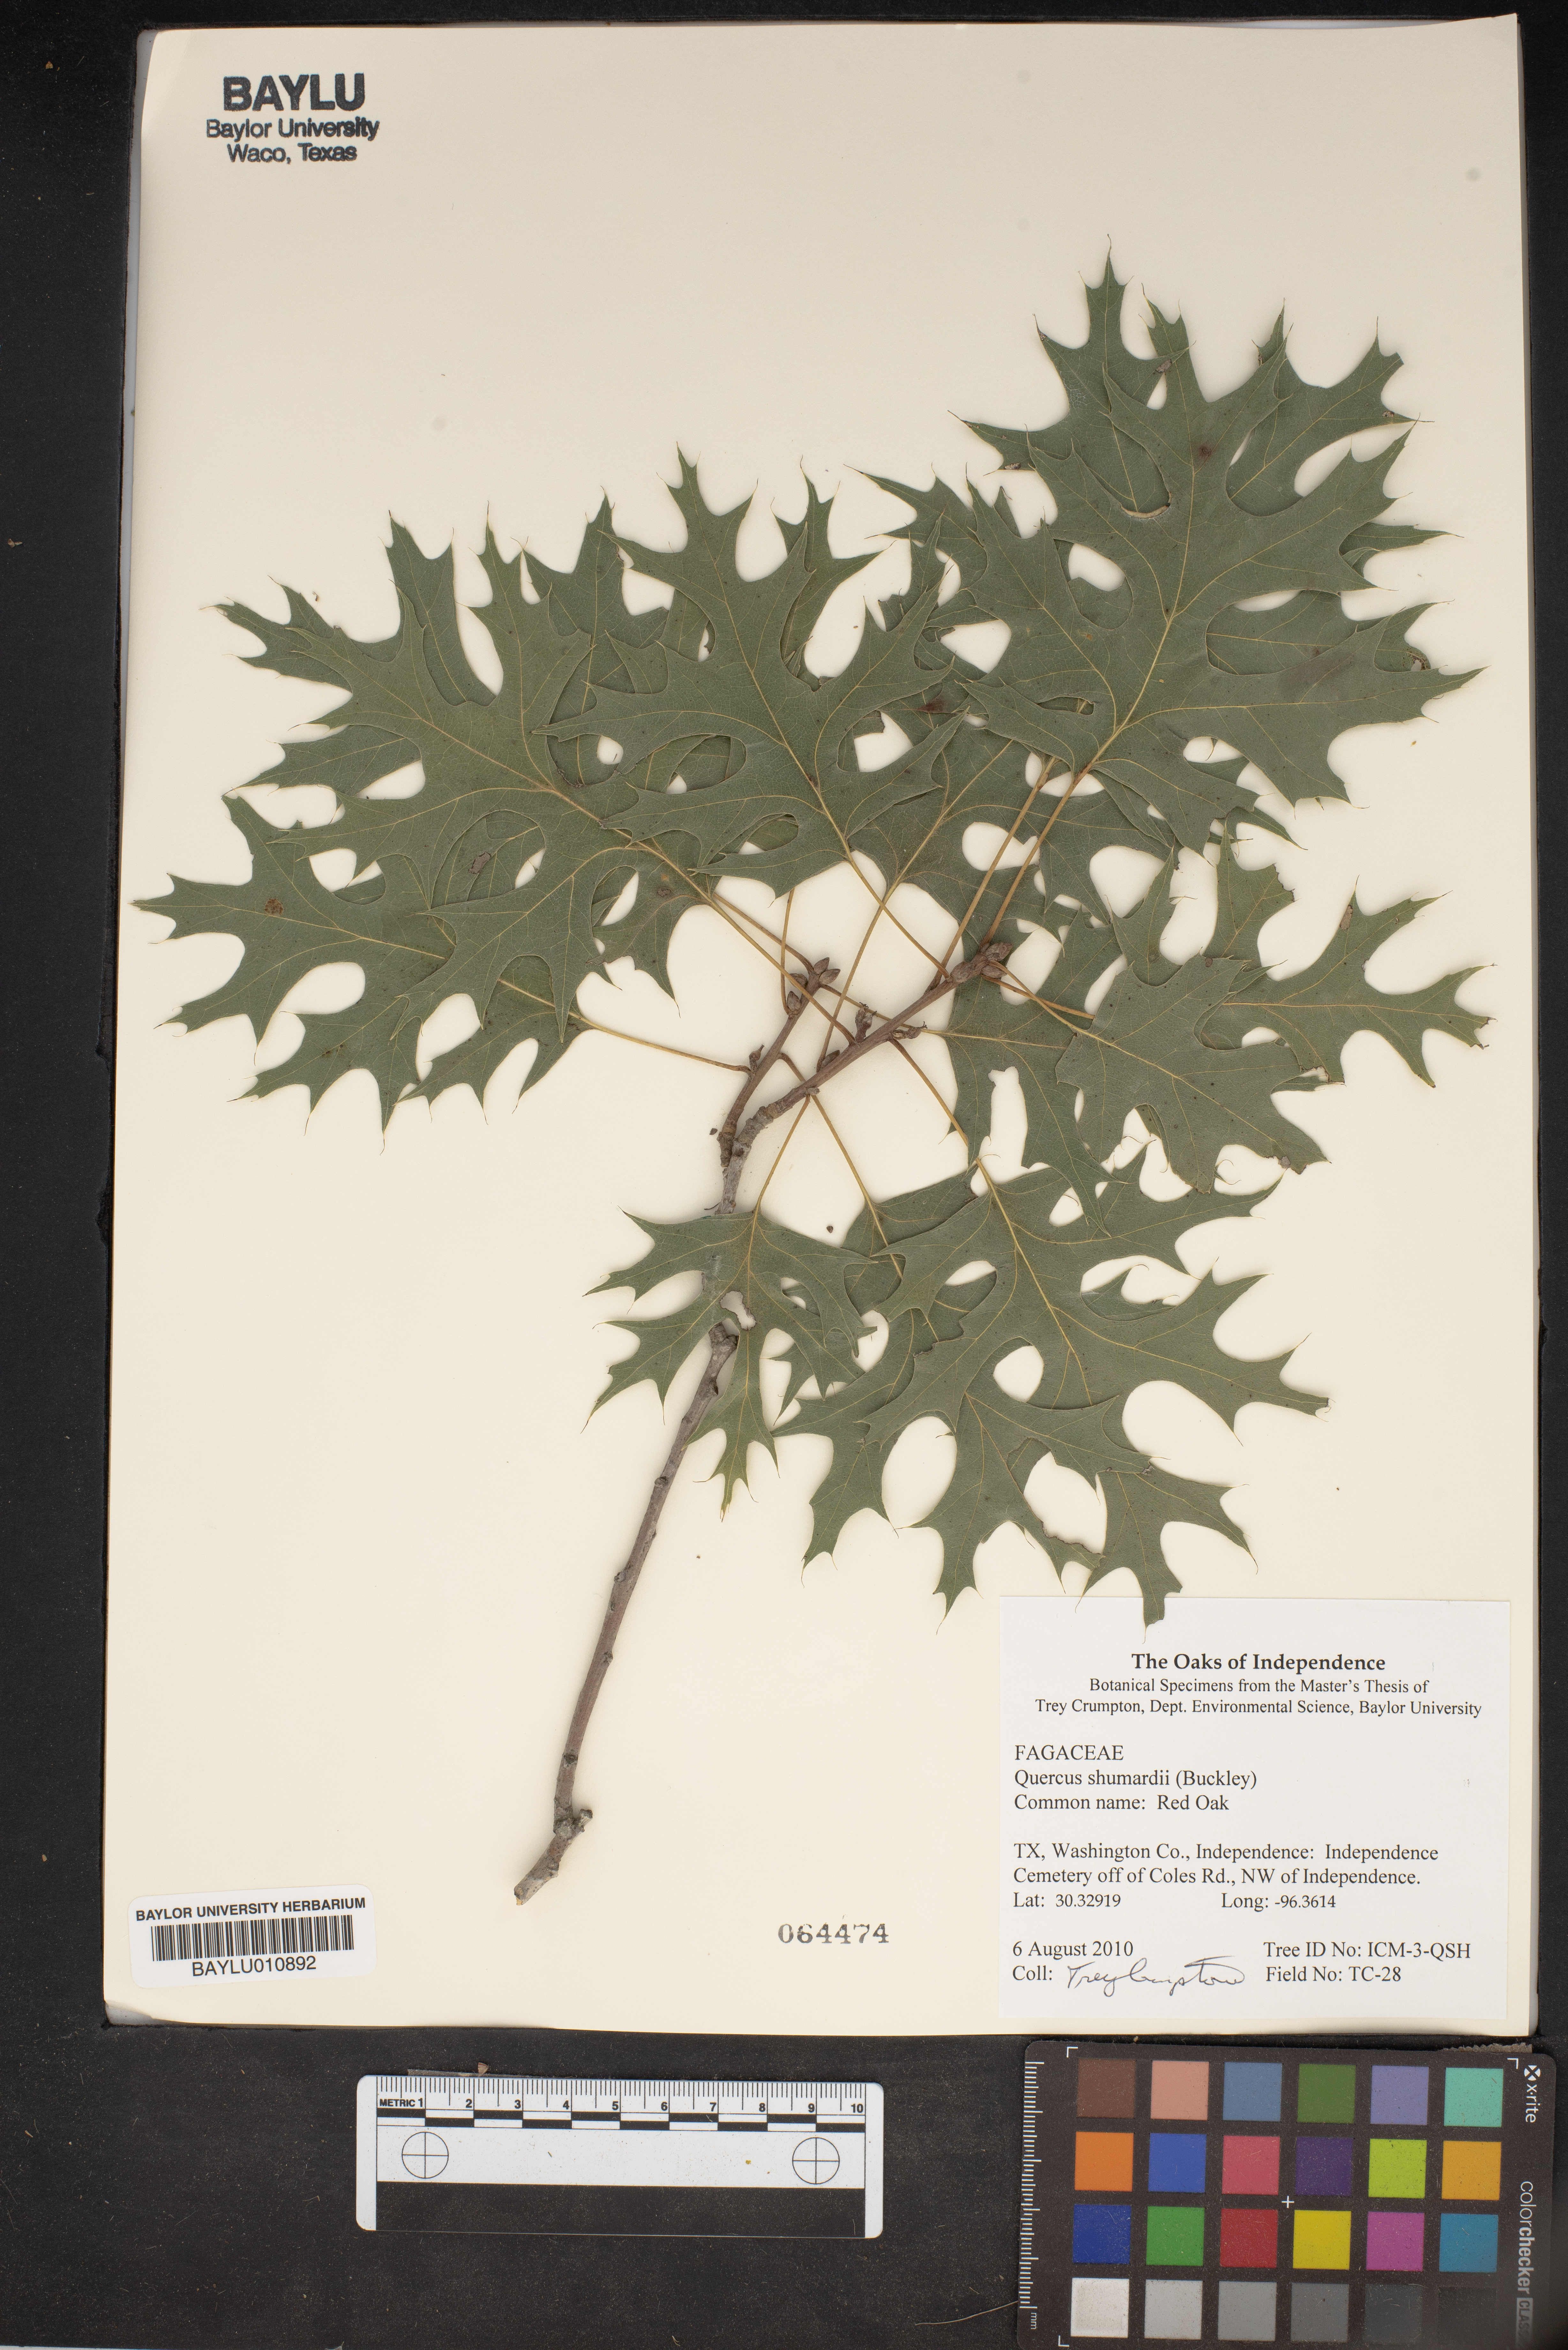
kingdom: Plantae
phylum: Tracheophyta
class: Magnoliopsida
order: Fagales
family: Fagaceae
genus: Quercus
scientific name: Quercus shumardii
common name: Shumard oak
